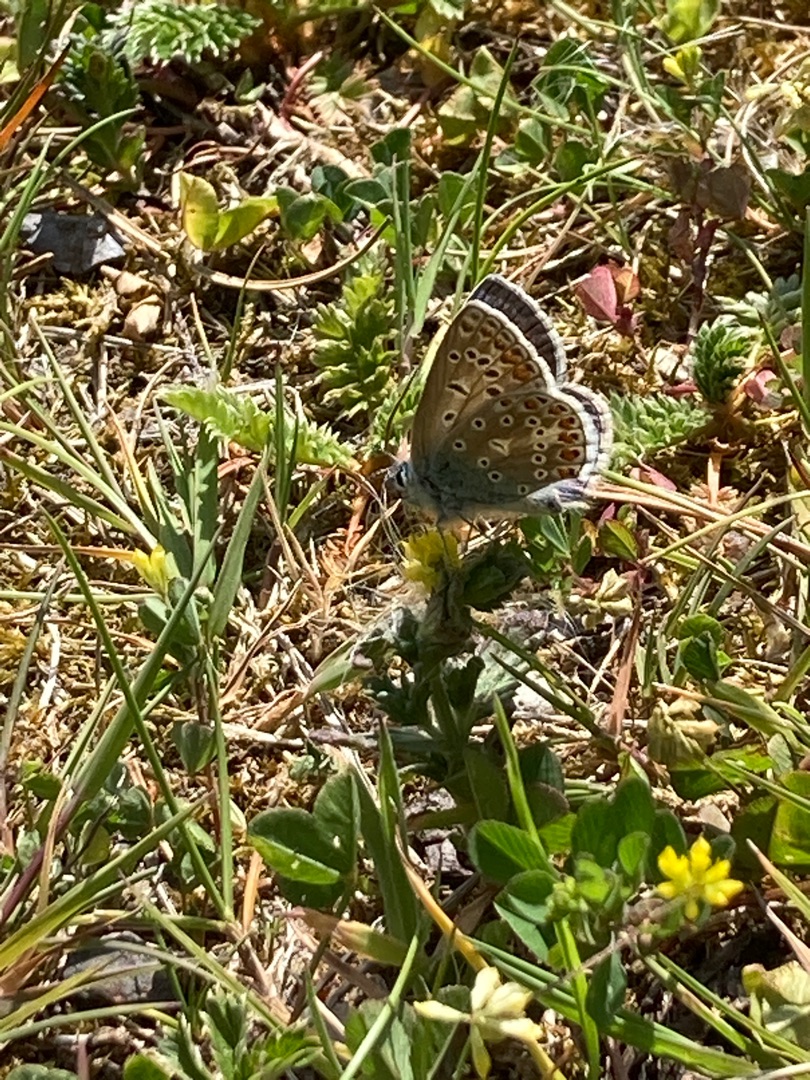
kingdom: Animalia
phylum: Arthropoda
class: Insecta
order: Lepidoptera
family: Lycaenidae
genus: Polyommatus
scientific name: Polyommatus icarus
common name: Almindelig blåfugl
